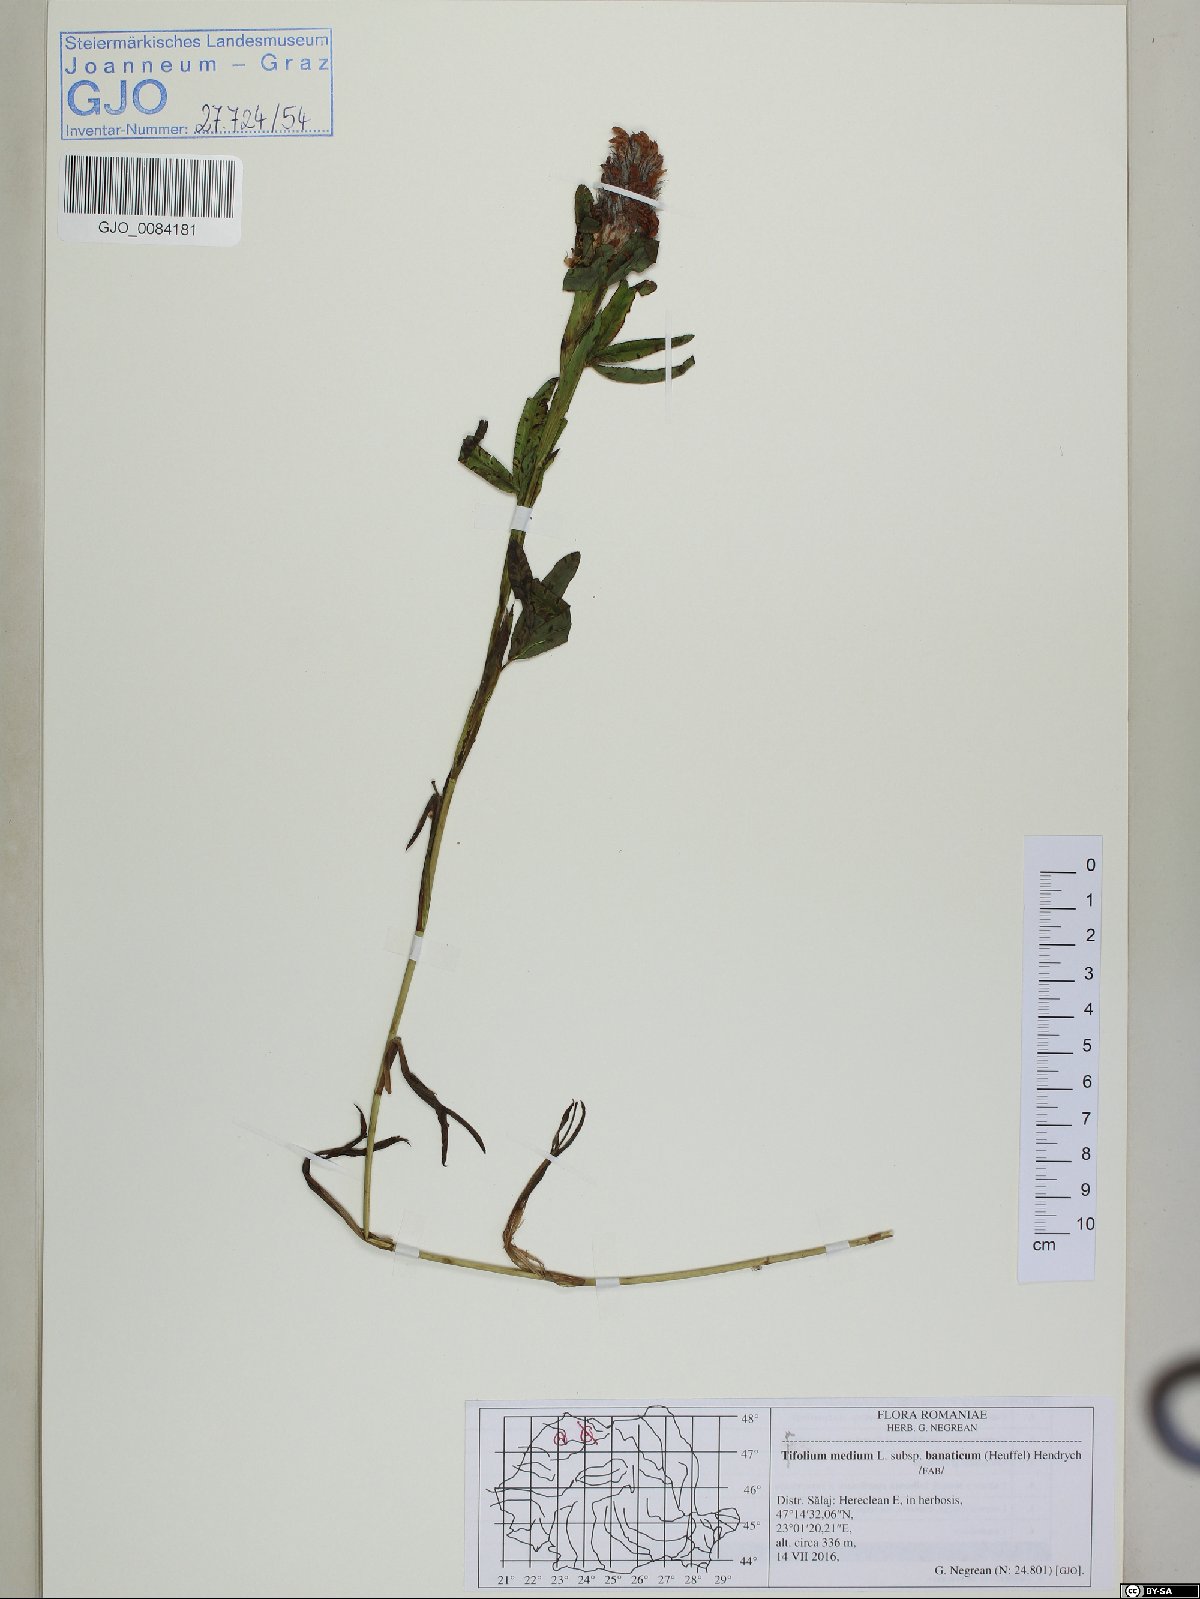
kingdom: Plantae
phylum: Tracheophyta
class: Magnoliopsida
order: Fabales
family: Fabaceae
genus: Trifolium
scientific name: Trifolium sarosiense
